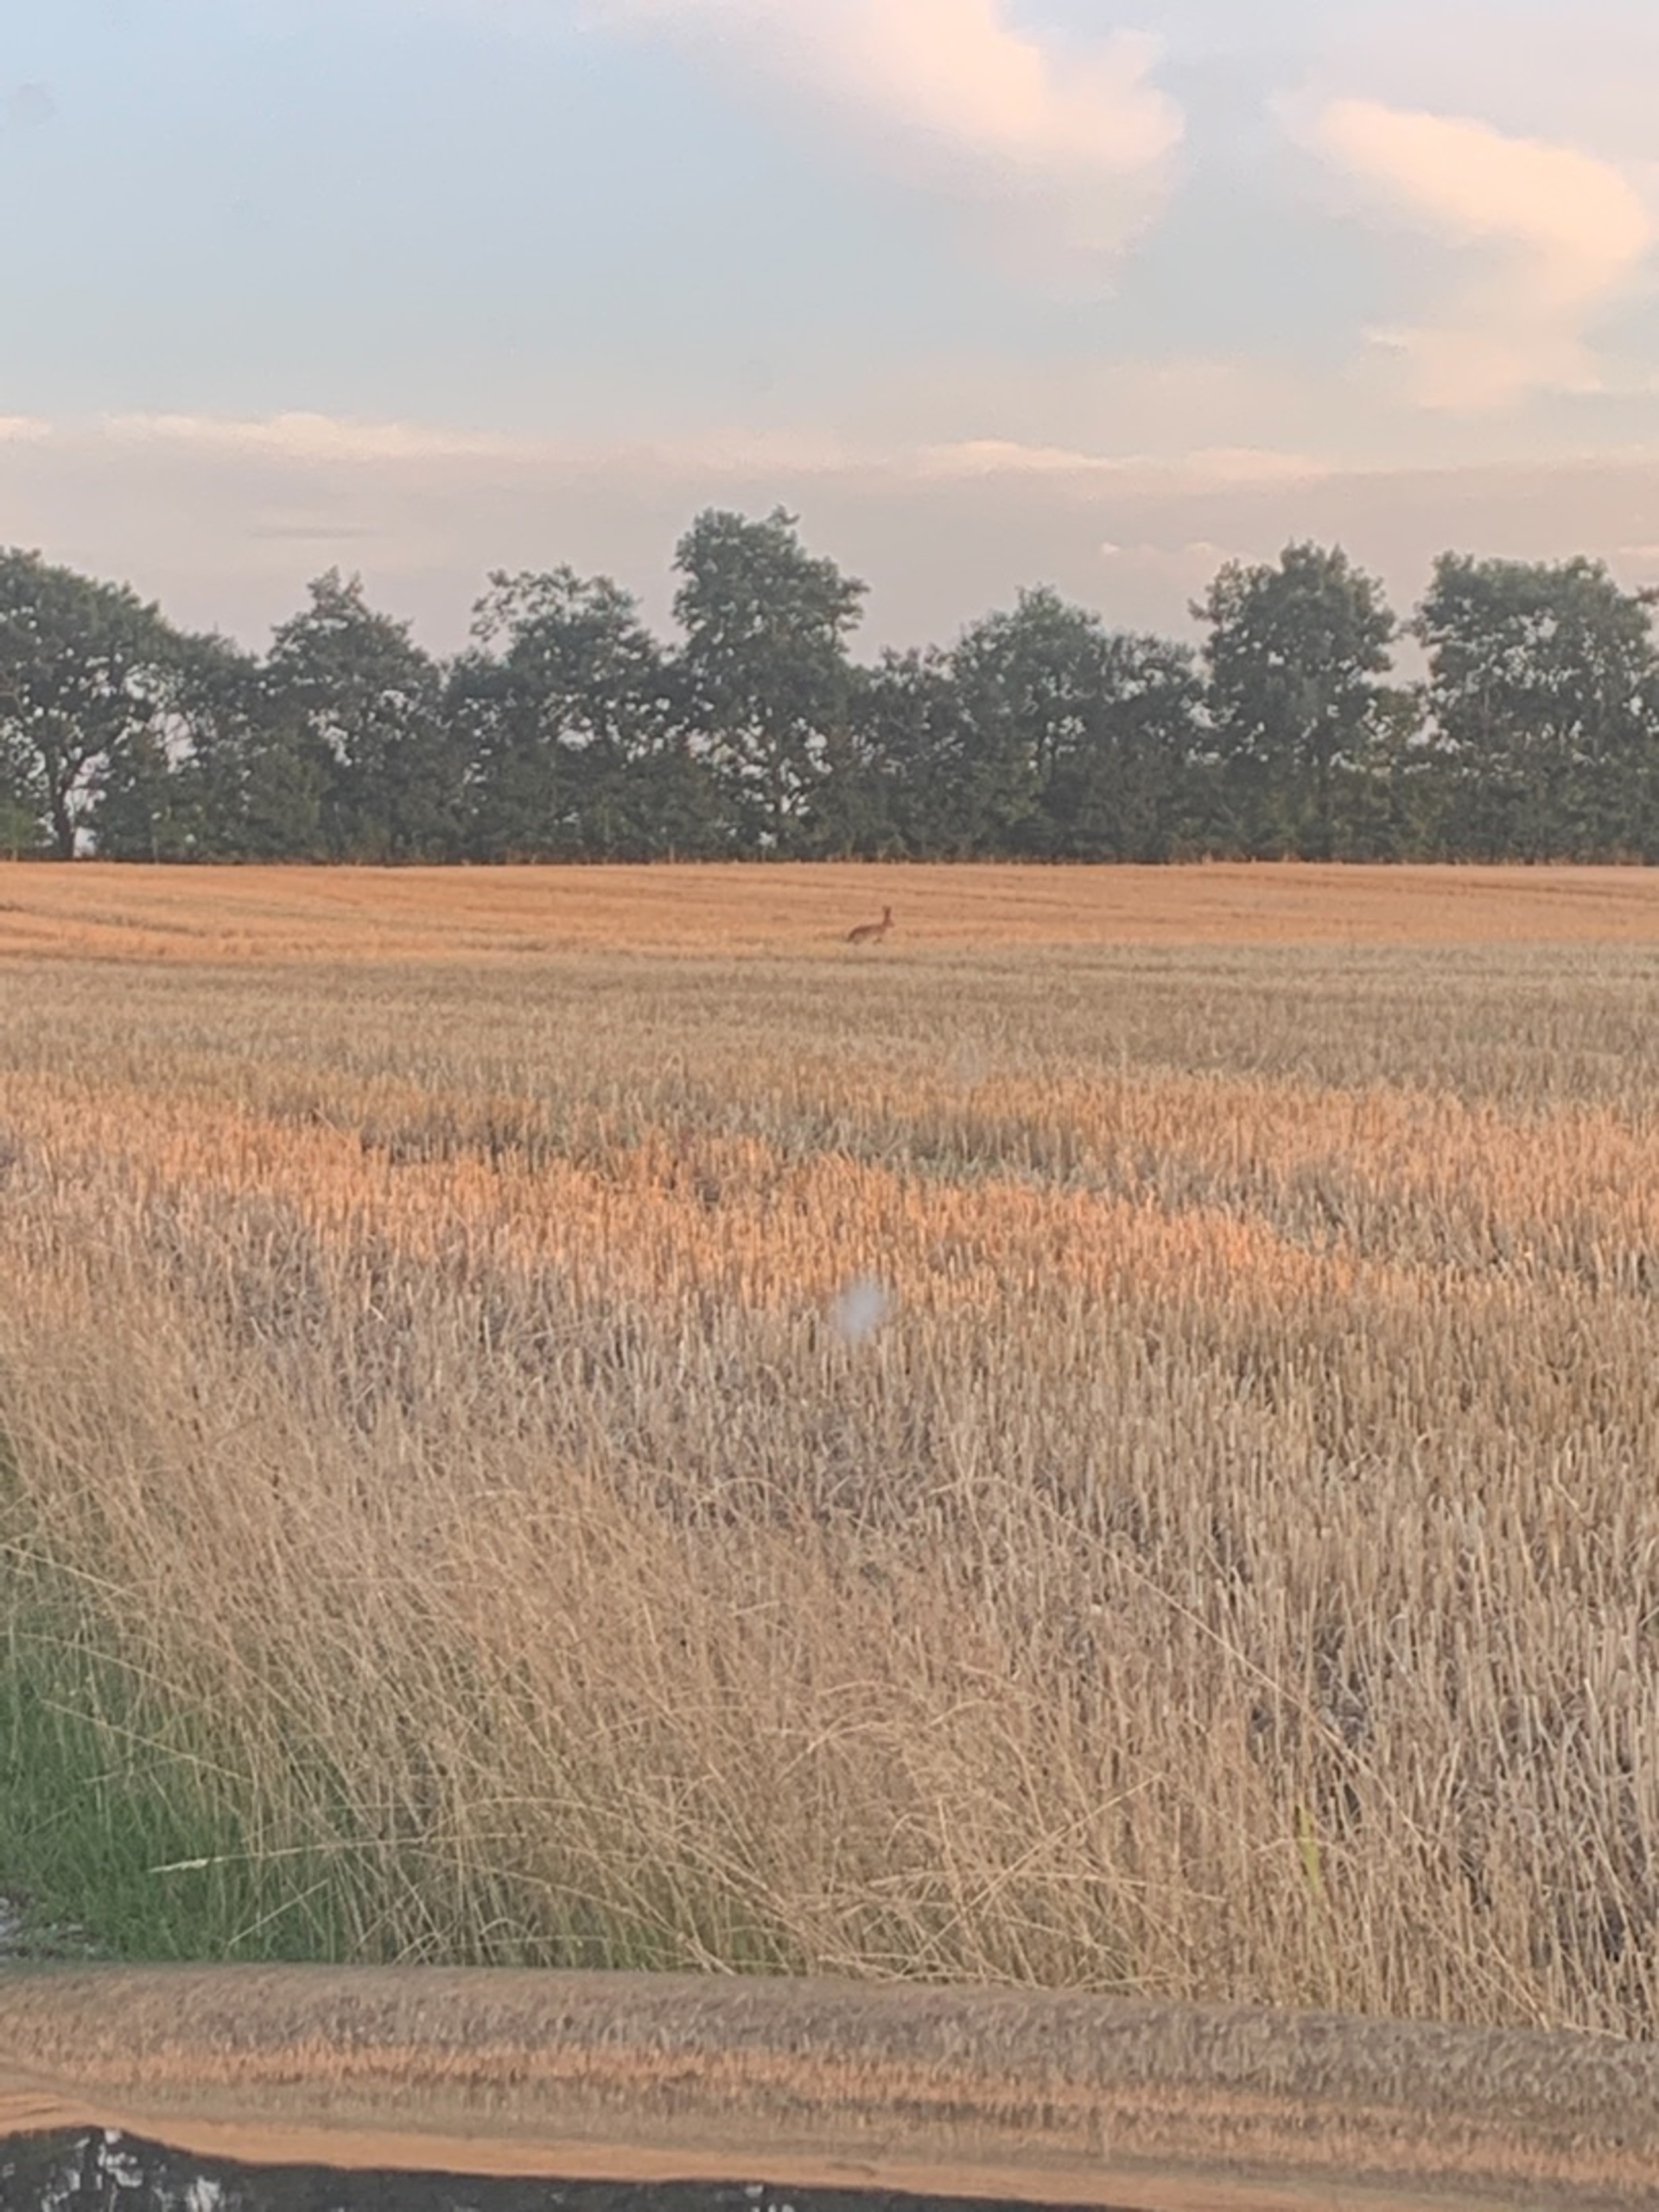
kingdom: Animalia
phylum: Chordata
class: Mammalia
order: Lagomorpha
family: Leporidae
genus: Lepus
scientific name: Lepus europaeus
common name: Hare
